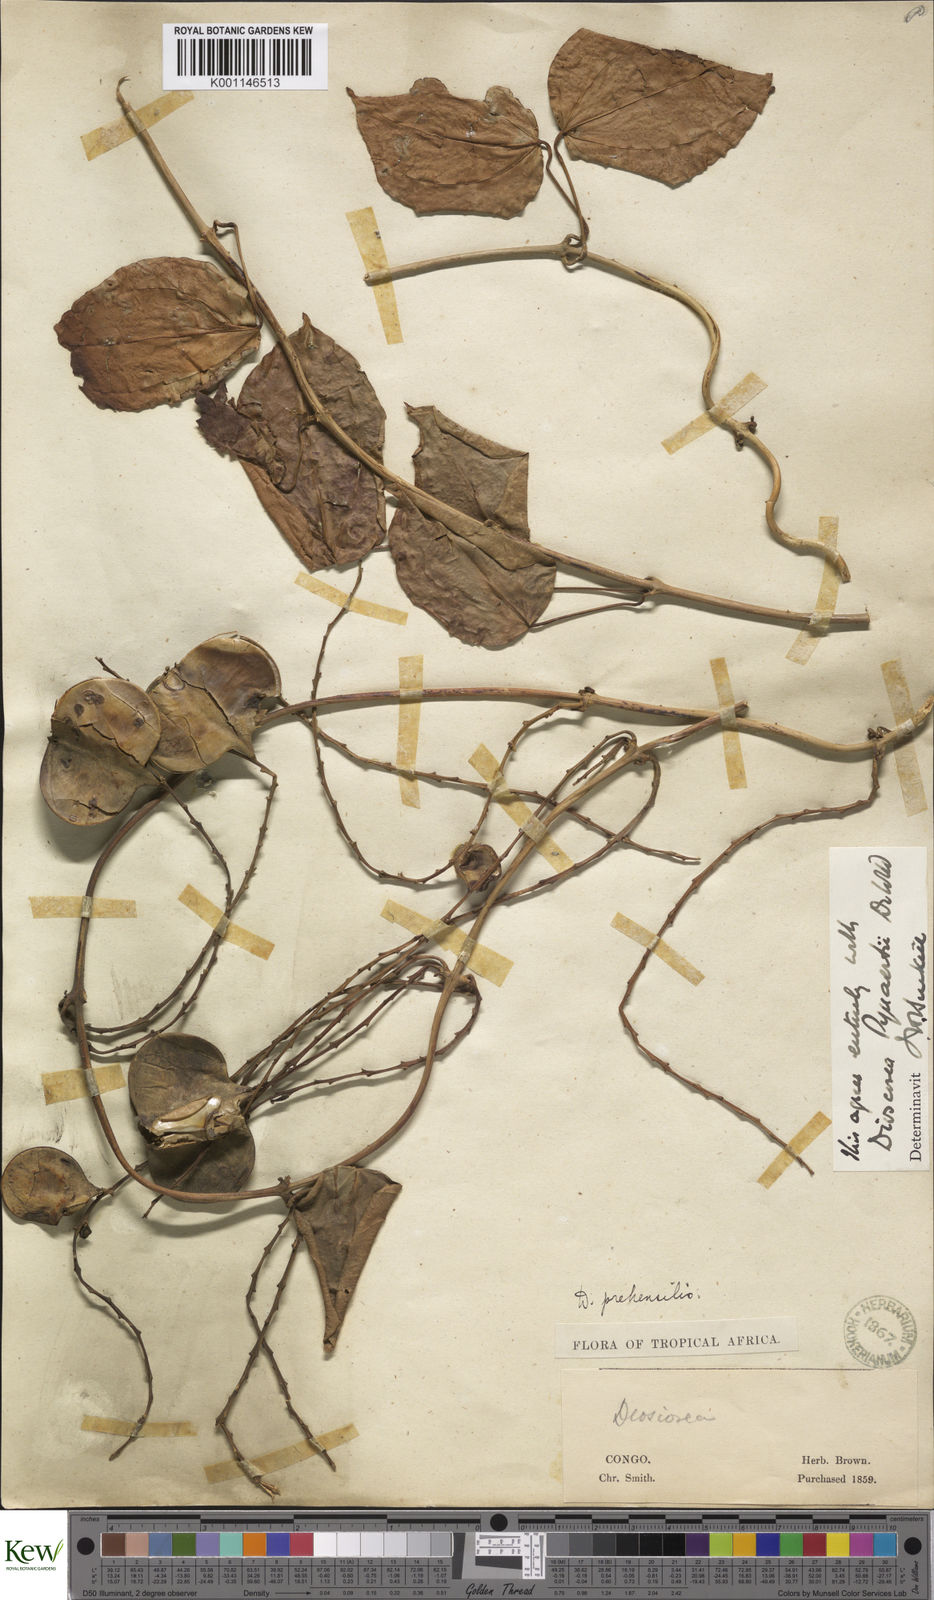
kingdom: Plantae
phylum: Tracheophyta
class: Liliopsida
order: Dioscoreales
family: Dioscoreaceae
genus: Dioscorea
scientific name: Dioscorea pynaertii
